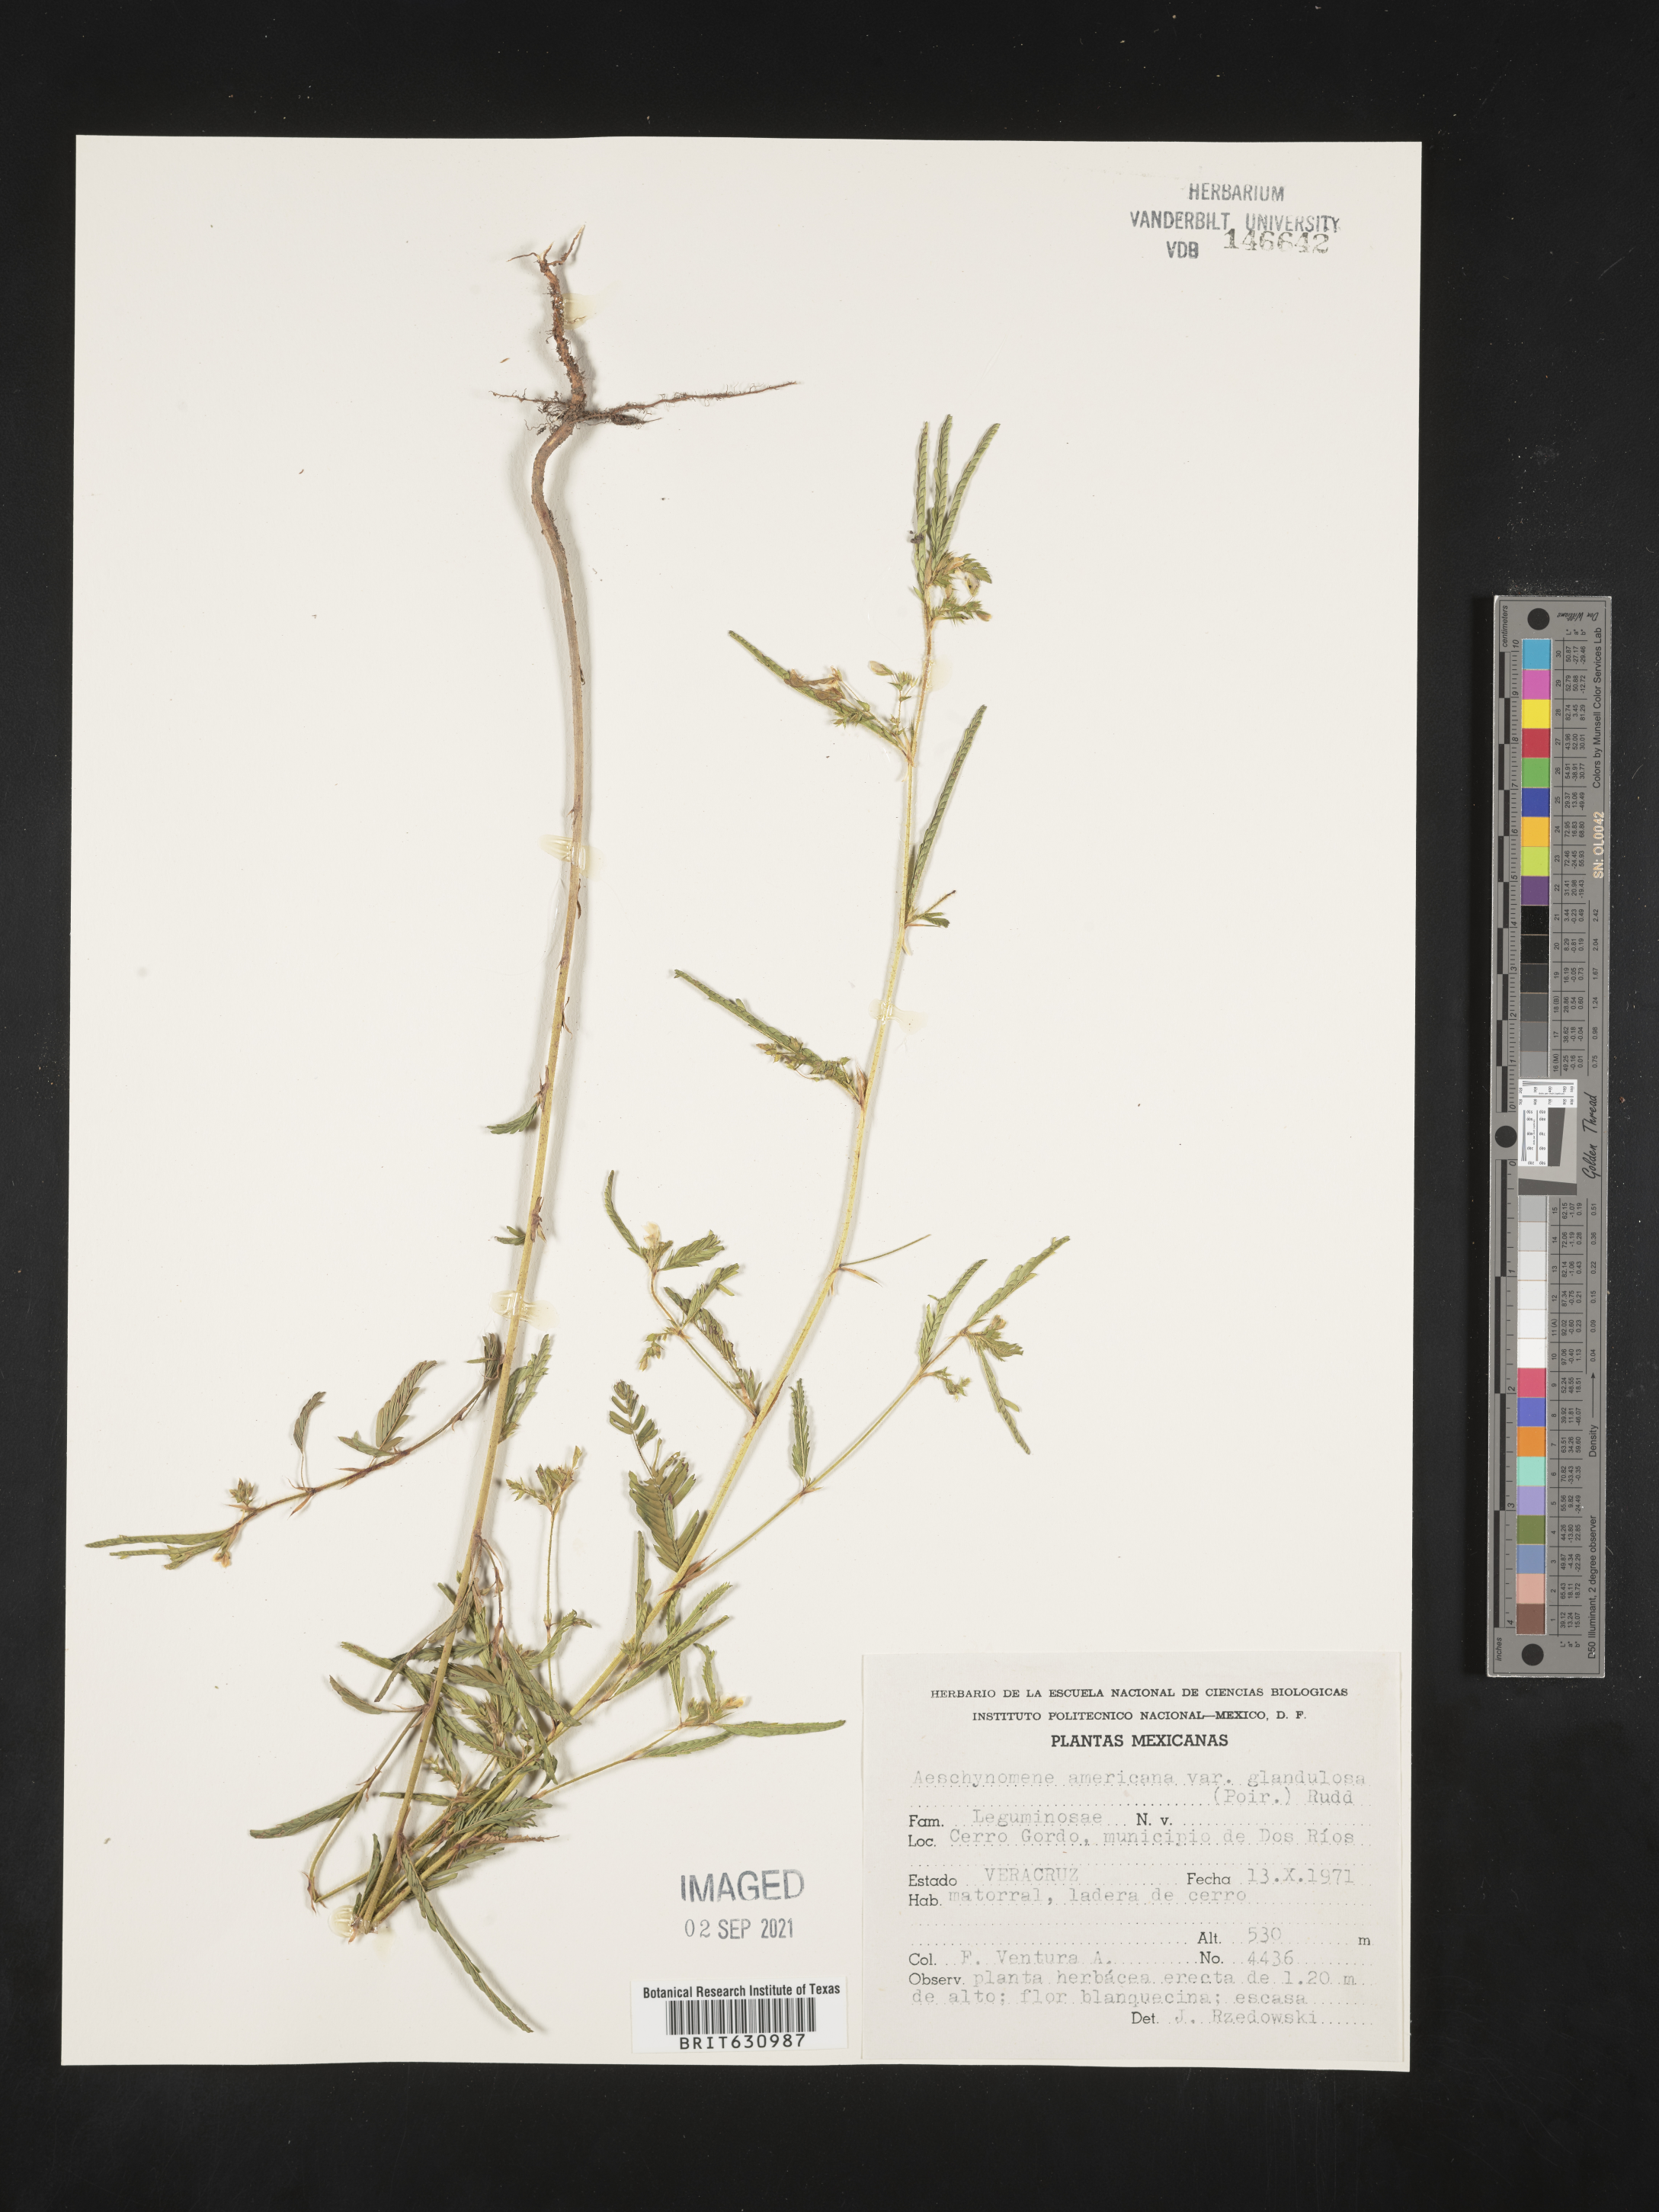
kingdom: Plantae
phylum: Tracheophyta
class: Magnoliopsida
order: Fabales
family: Fabaceae
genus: Aeschynomene
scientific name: Aeschynomene
